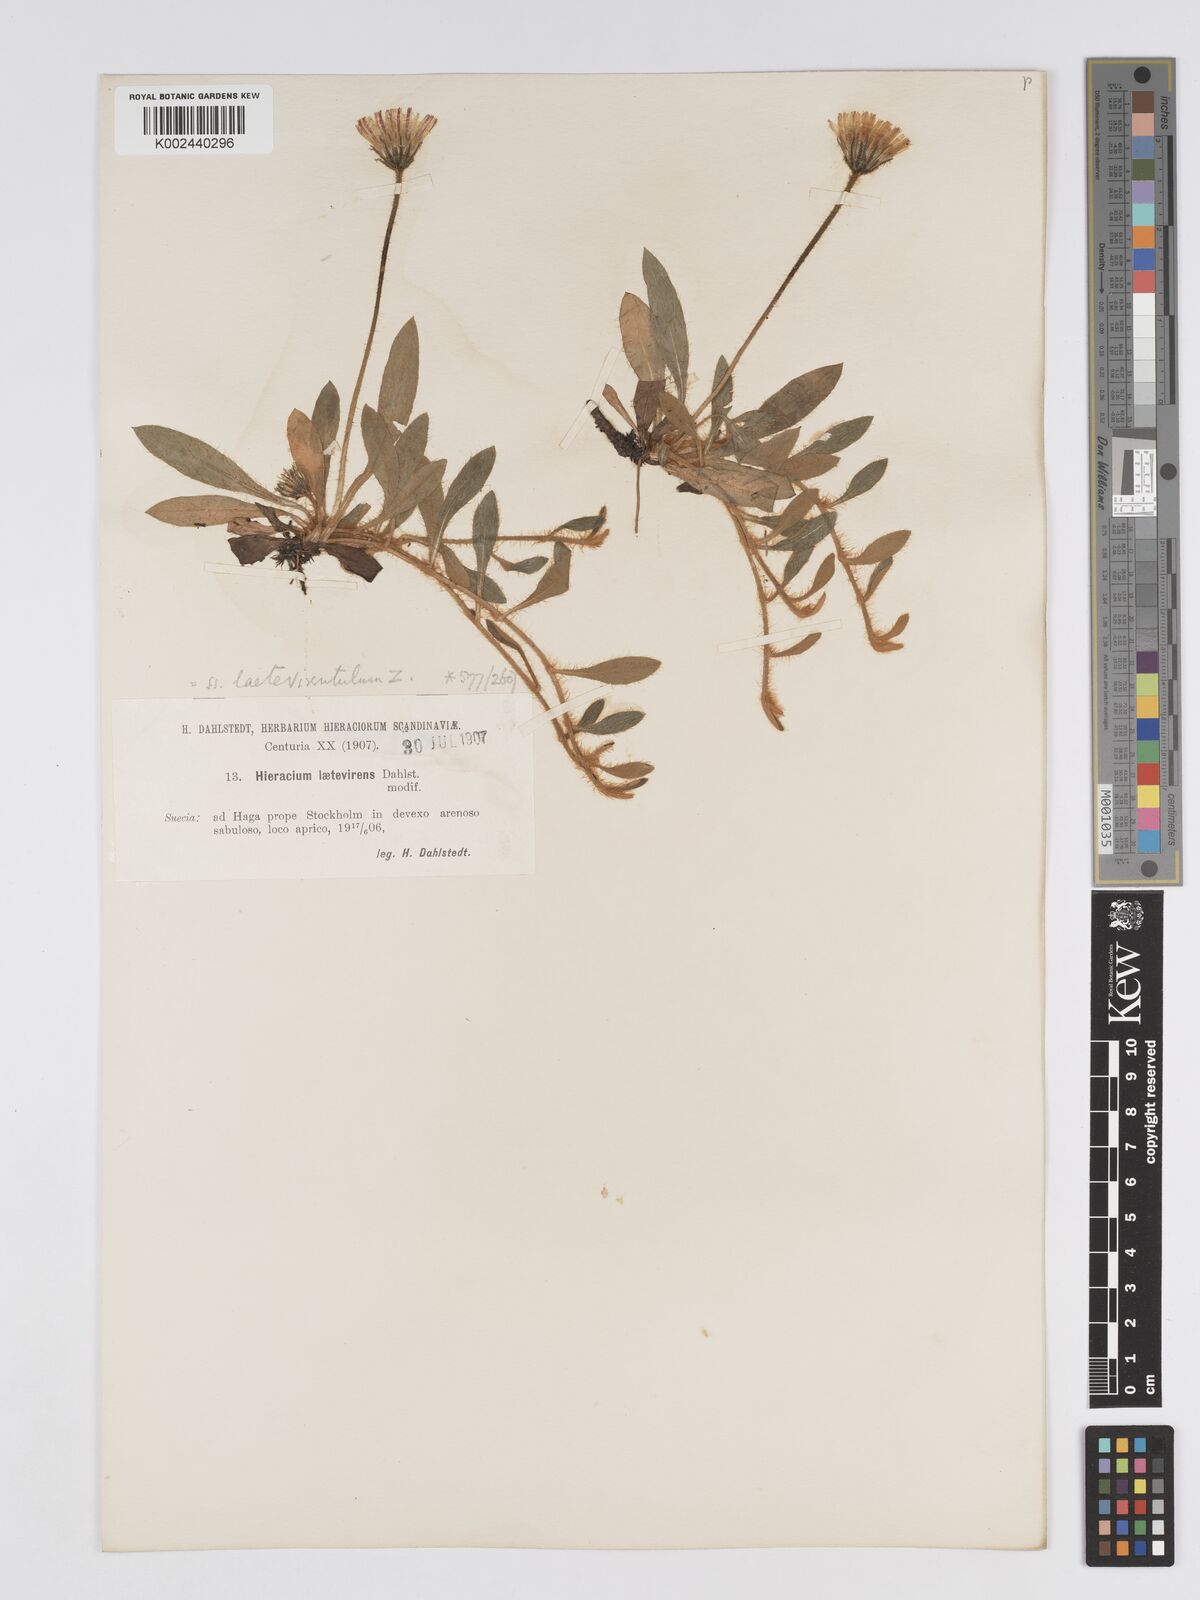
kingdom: Plantae
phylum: Tracheophyta
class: Magnoliopsida
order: Asterales
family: Asteraceae
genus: Pilosella
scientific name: Pilosella officinarum
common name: Mouse-ear hawkweed
